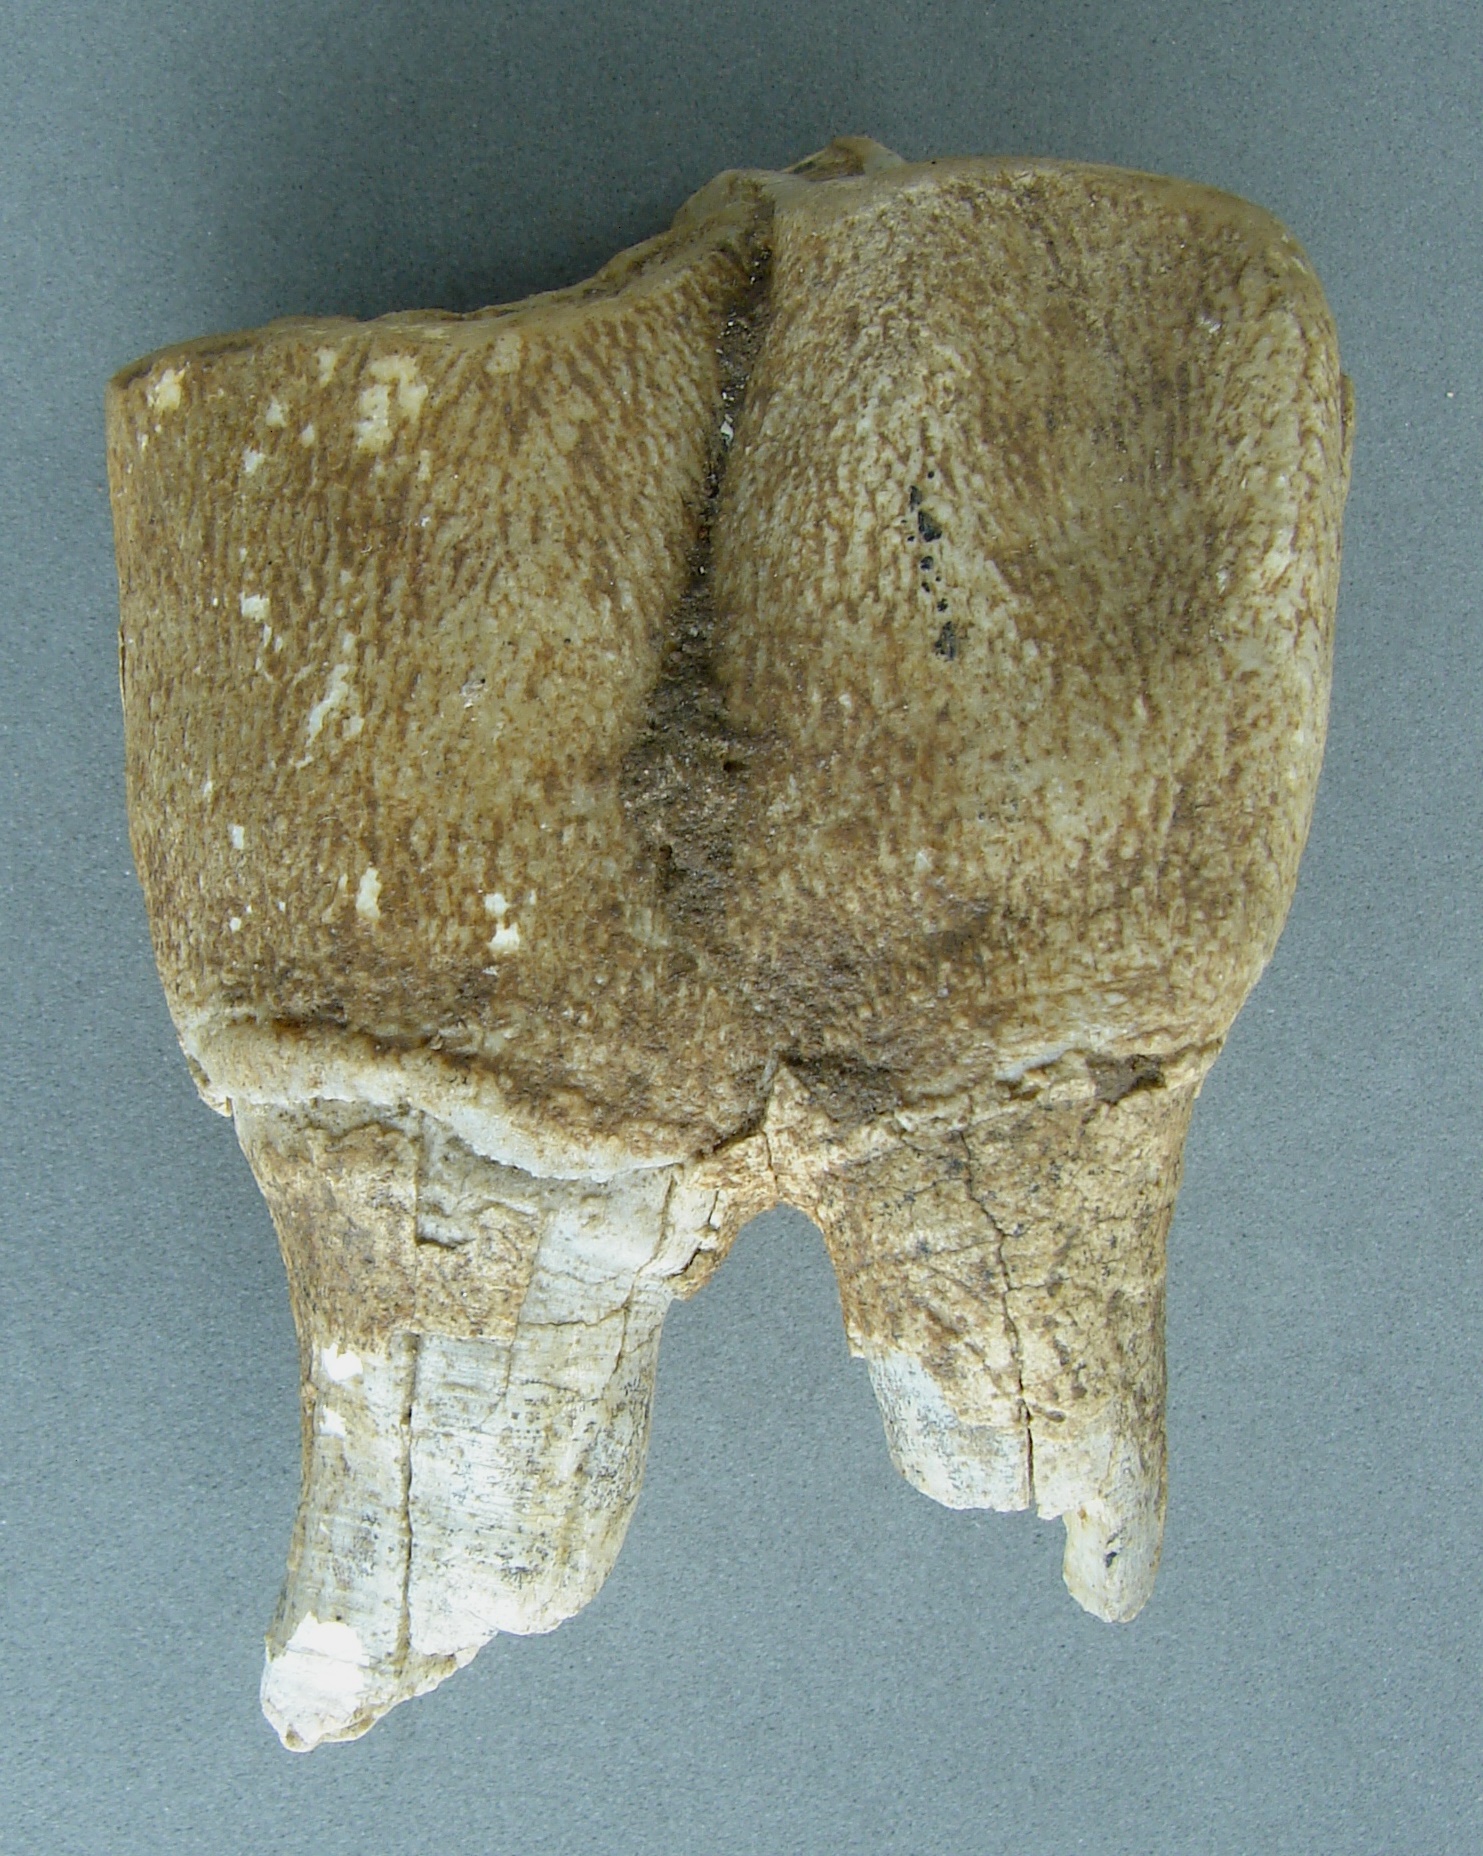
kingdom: Animalia
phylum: Chordata
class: Mammalia
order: Perissodactyla
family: Rhinocerotidae
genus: Rhinoceros
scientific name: Rhinoceros
